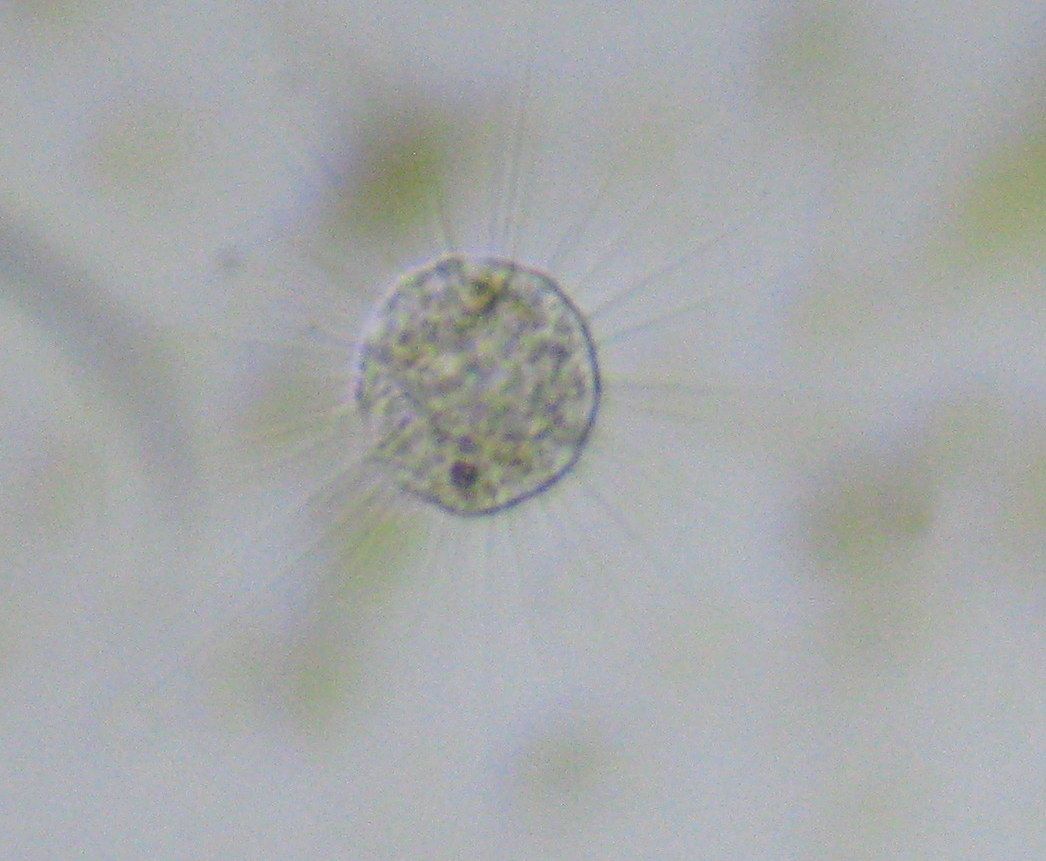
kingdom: Chromista
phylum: Ochrophyta
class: Raphidophyceae
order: Actinophryida
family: Actinophryidae
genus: Actinophrys
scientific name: Actinophrys sol
